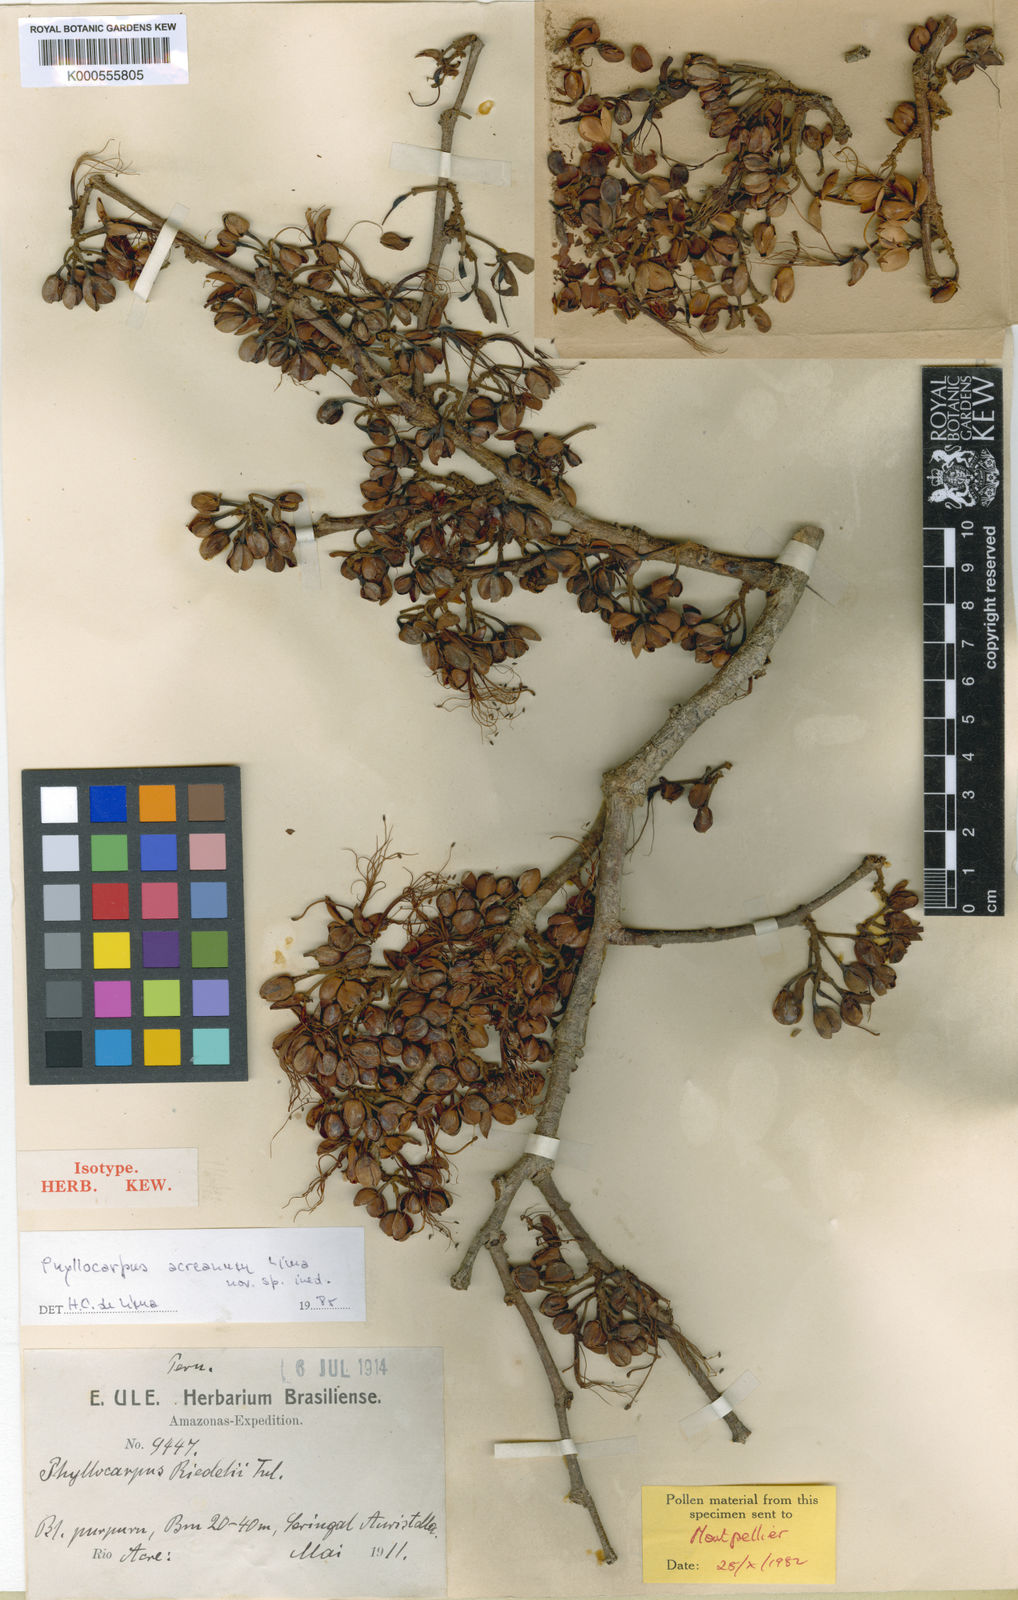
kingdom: Plantae
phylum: Tracheophyta
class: Magnoliopsida
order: Fabales
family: Fabaceae
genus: Barnebydendron
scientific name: Barnebydendron riedelii
